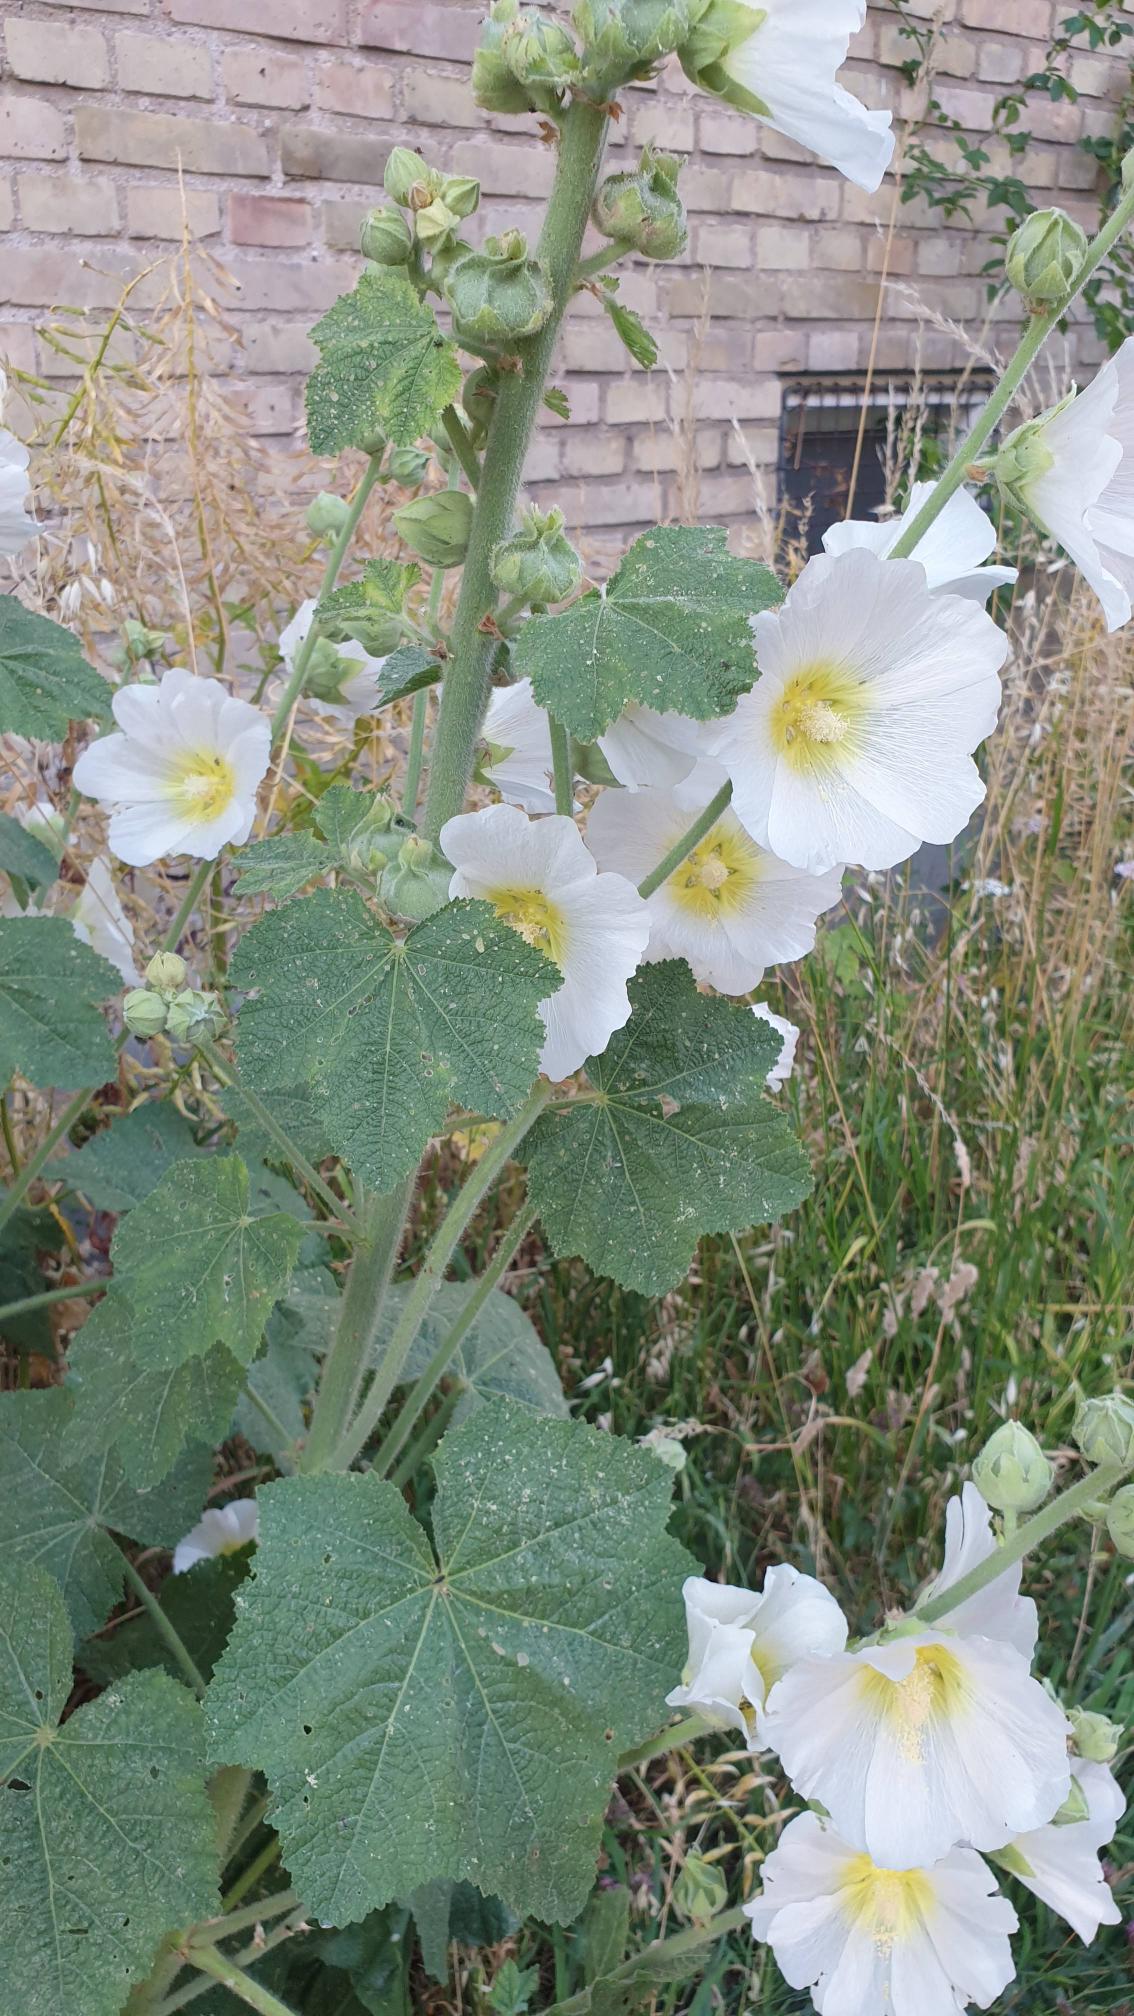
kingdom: Plantae
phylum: Tracheophyta
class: Magnoliopsida
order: Malvales
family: Malvaceae
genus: Alcea
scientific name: Alcea rosea
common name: Have-stokrose
